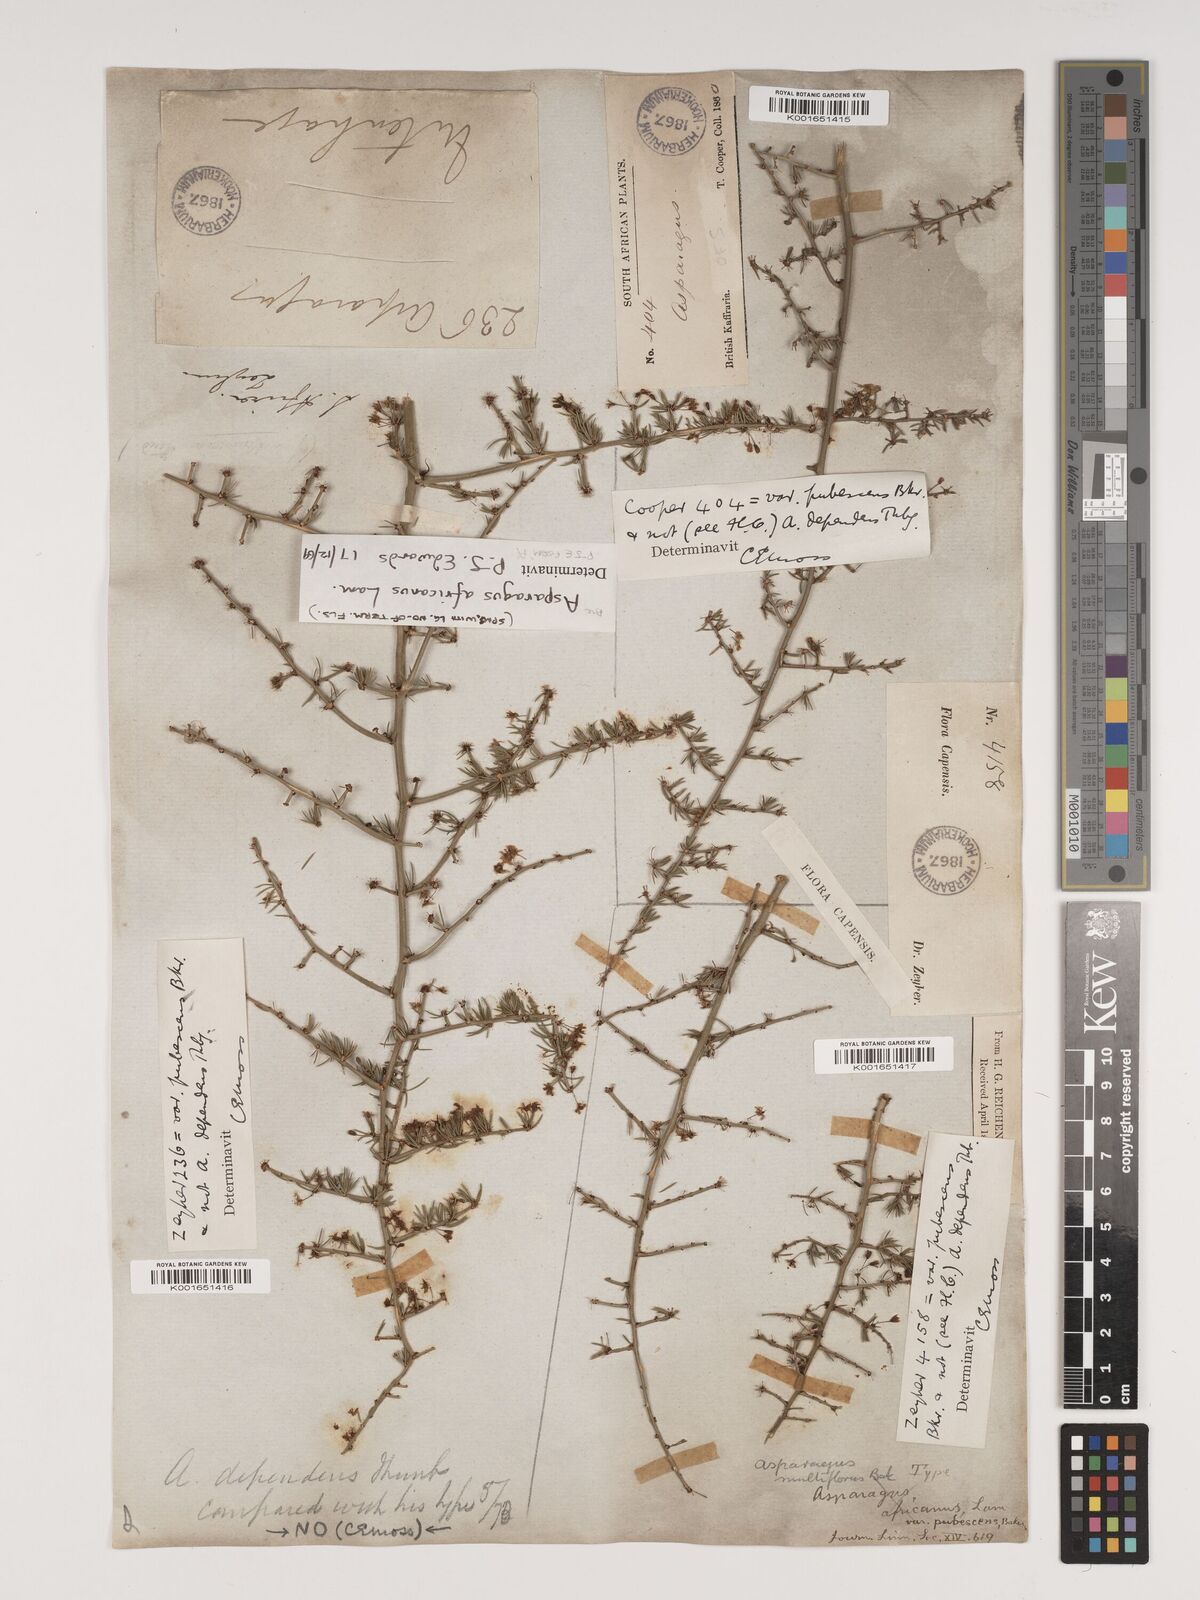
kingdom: Plantae
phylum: Tracheophyta
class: Liliopsida
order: Asparagales
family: Asparagaceae
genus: Asparagus
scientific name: Asparagus africanus
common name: Asparagus-fern
